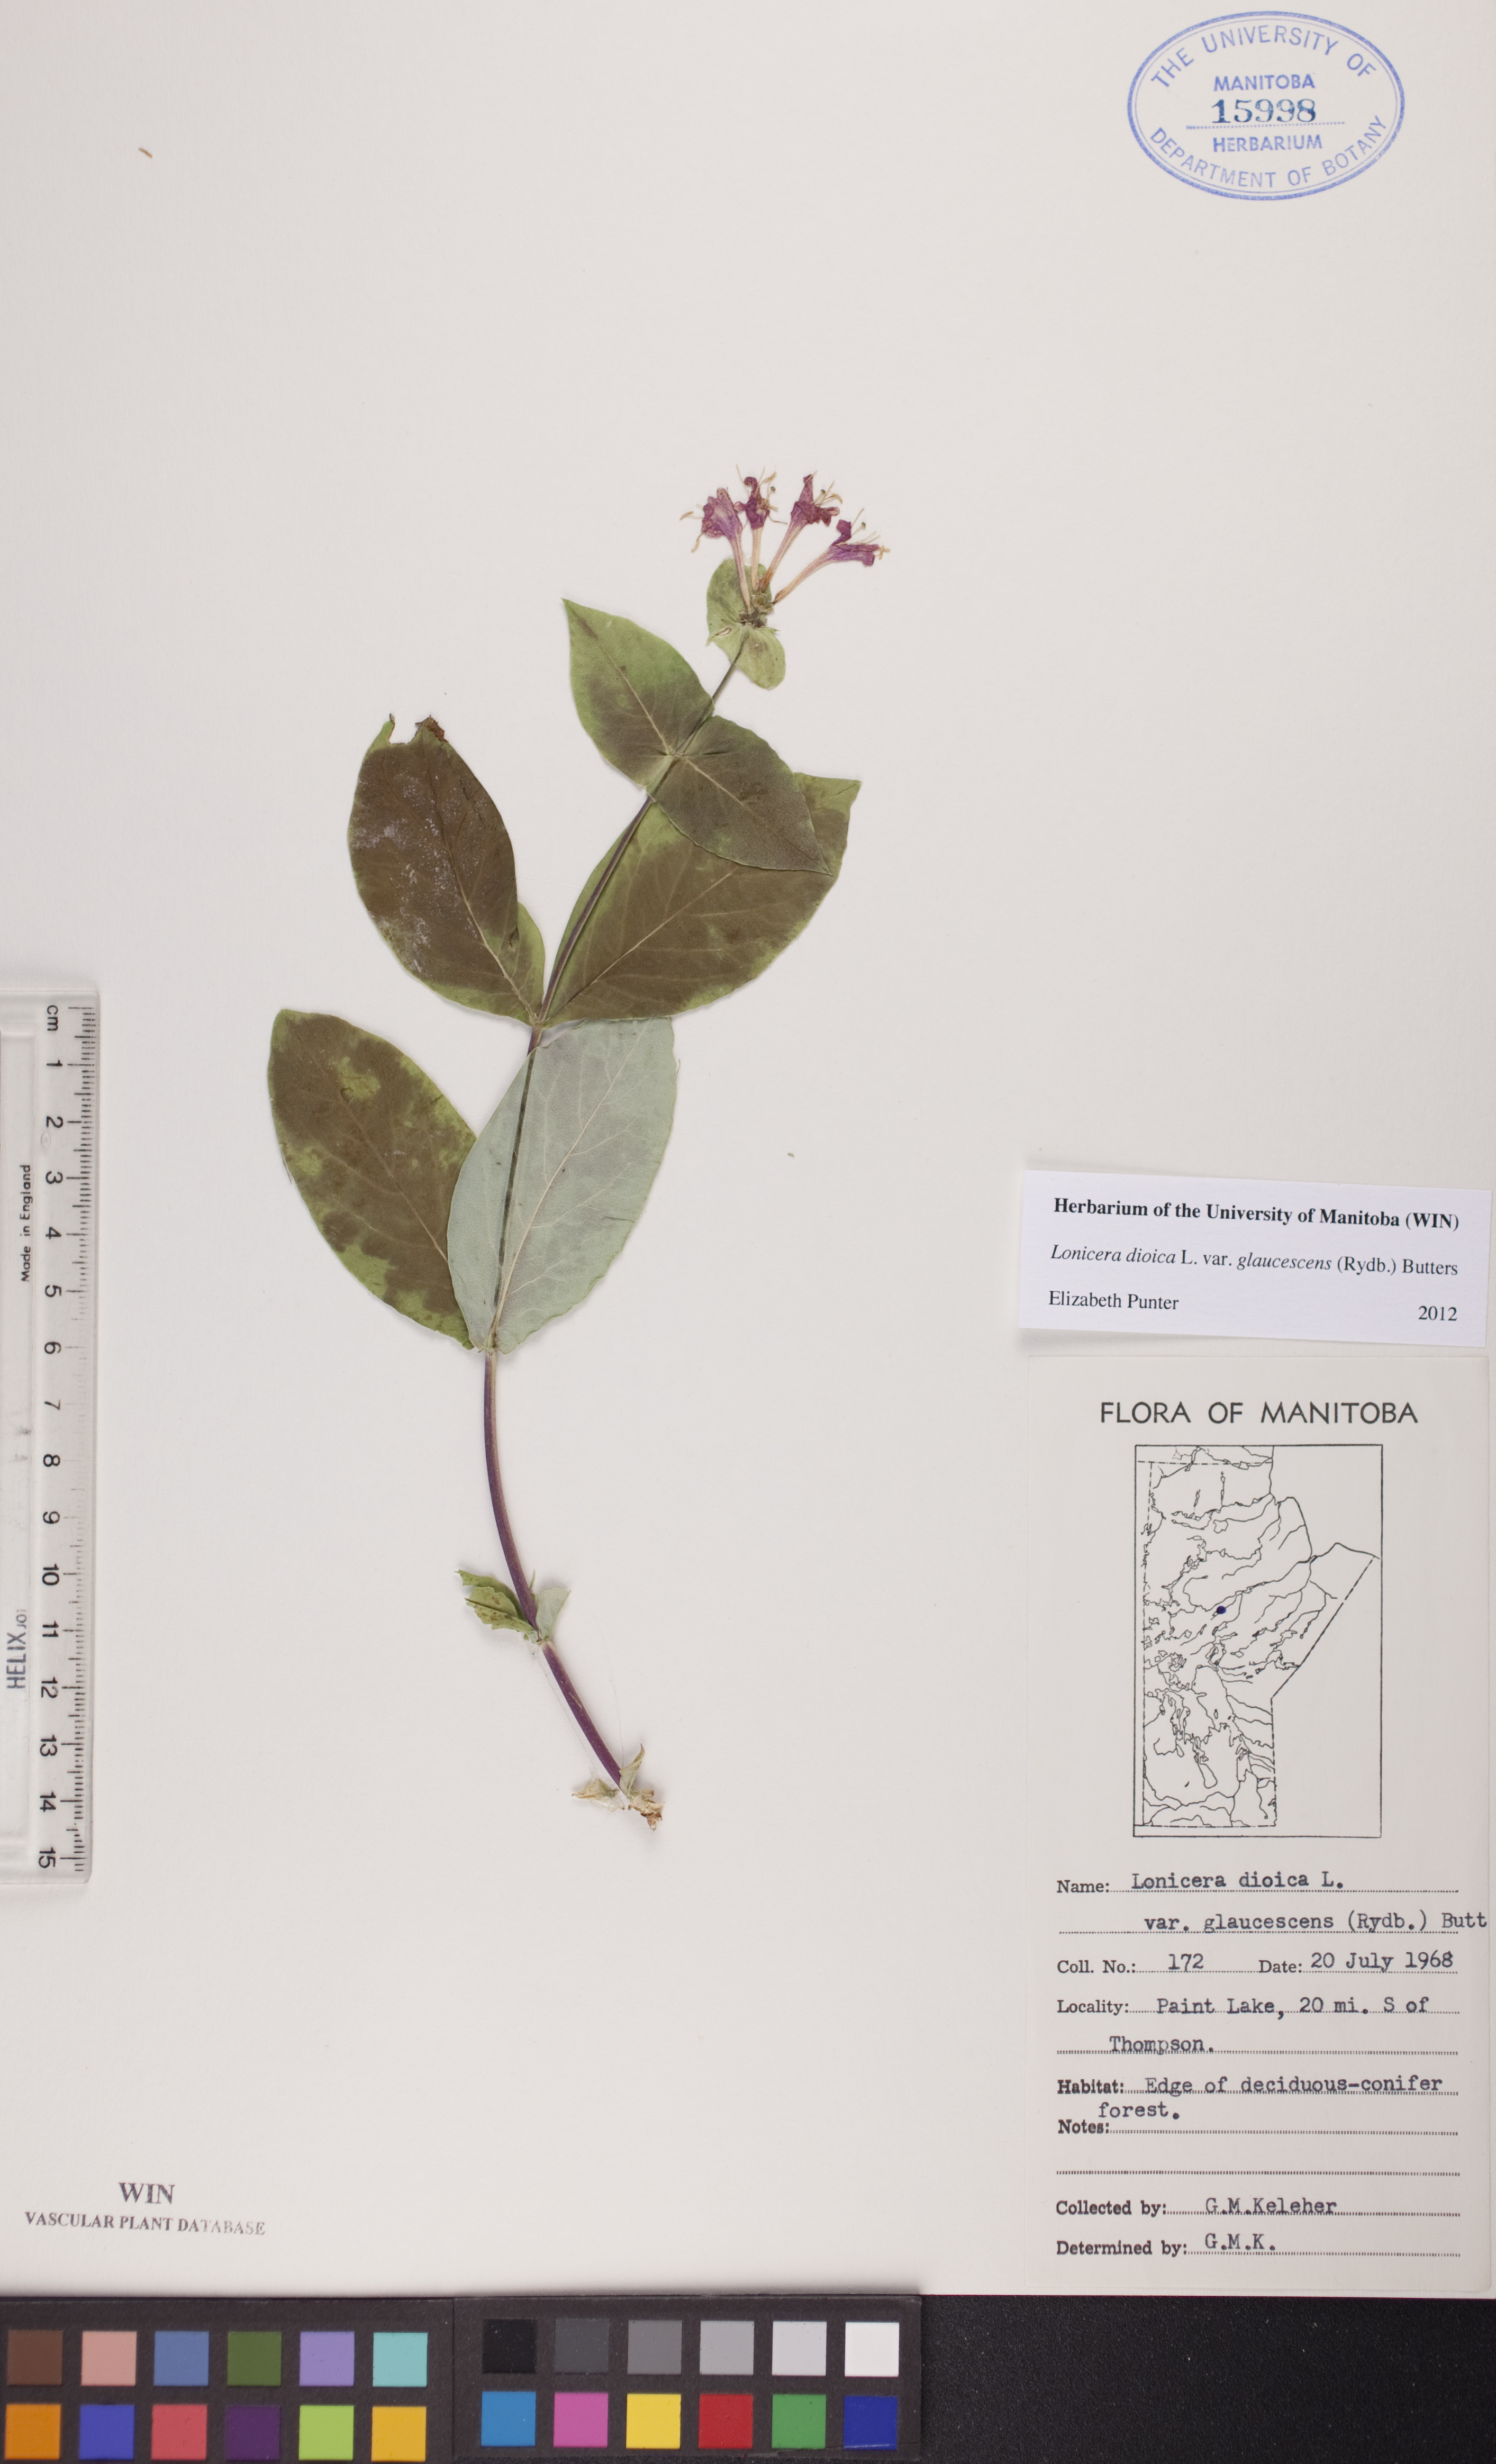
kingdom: Plantae
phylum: Tracheophyta
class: Magnoliopsida
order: Dipsacales
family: Caprifoliaceae
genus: Lonicera
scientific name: Lonicera dioica
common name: Limber honeysuckle
